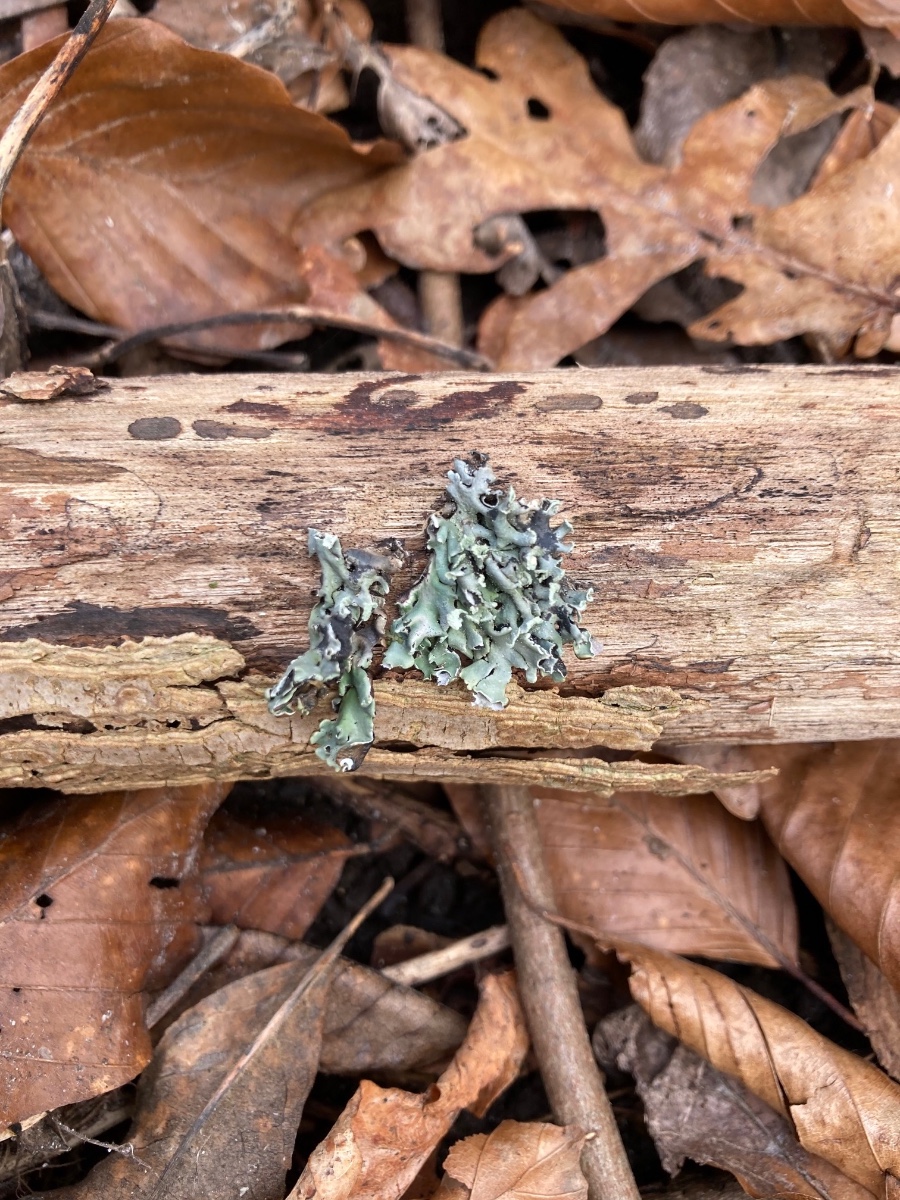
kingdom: Fungi
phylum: Ascomycota
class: Lecanoromycetes
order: Lecanorales
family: Parmeliaceae
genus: Hypogymnia
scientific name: Hypogymnia physodes
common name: almindelig kvistlav
